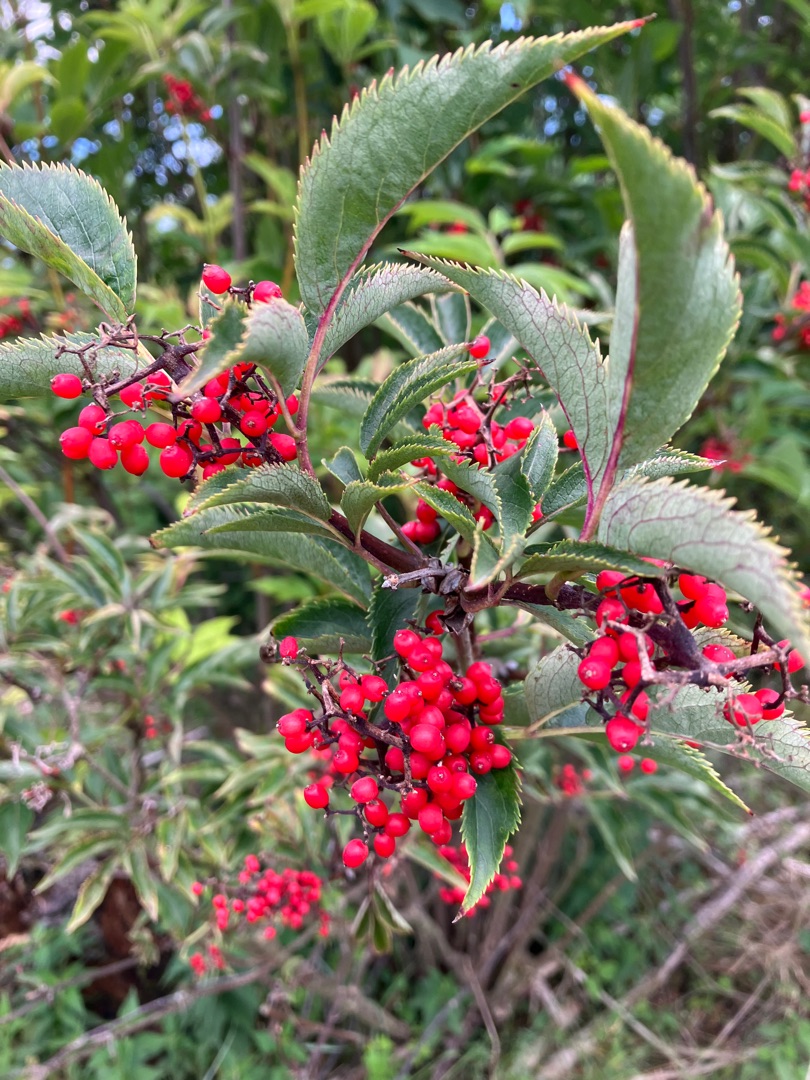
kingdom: Plantae
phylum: Tracheophyta
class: Magnoliopsida
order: Dipsacales
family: Viburnaceae
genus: Sambucus
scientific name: Sambucus racemosa
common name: Drue-hyld
